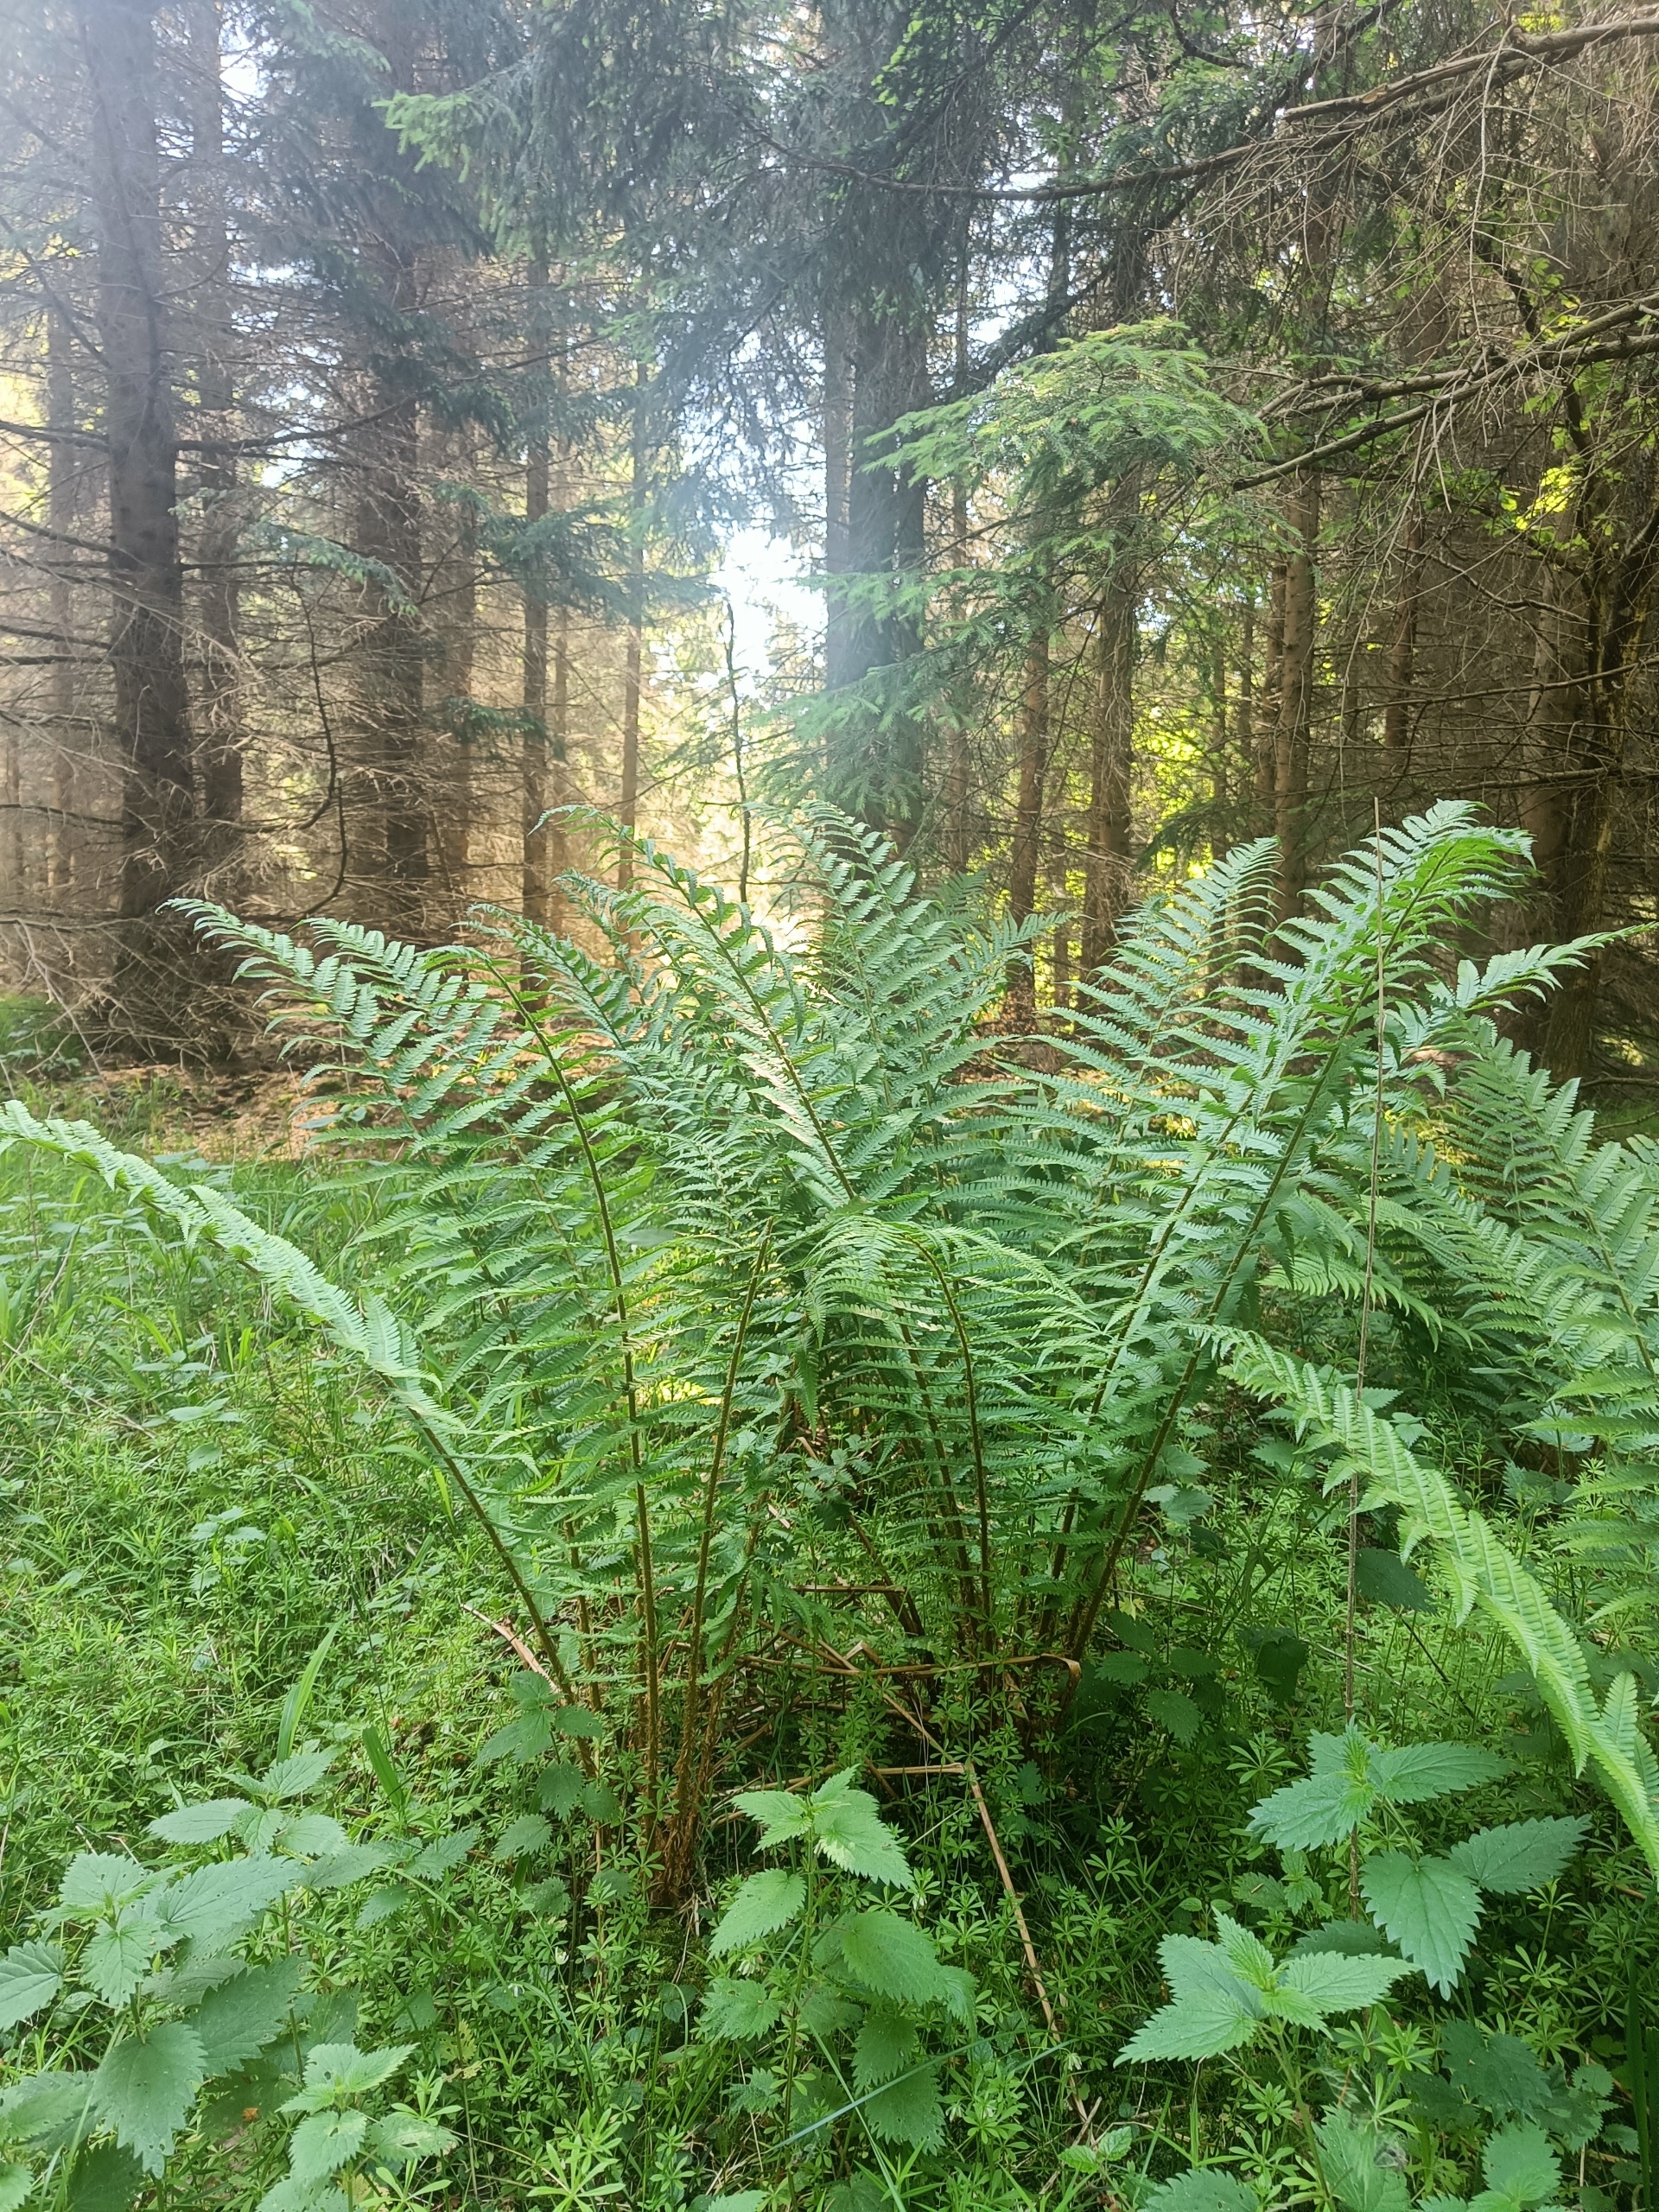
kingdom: Plantae
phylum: Tracheophyta
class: Polypodiopsida
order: Polypodiales
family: Dryopteridaceae
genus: Dryopteris
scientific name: Dryopteris filix-mas
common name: Almindelig mangeløv
